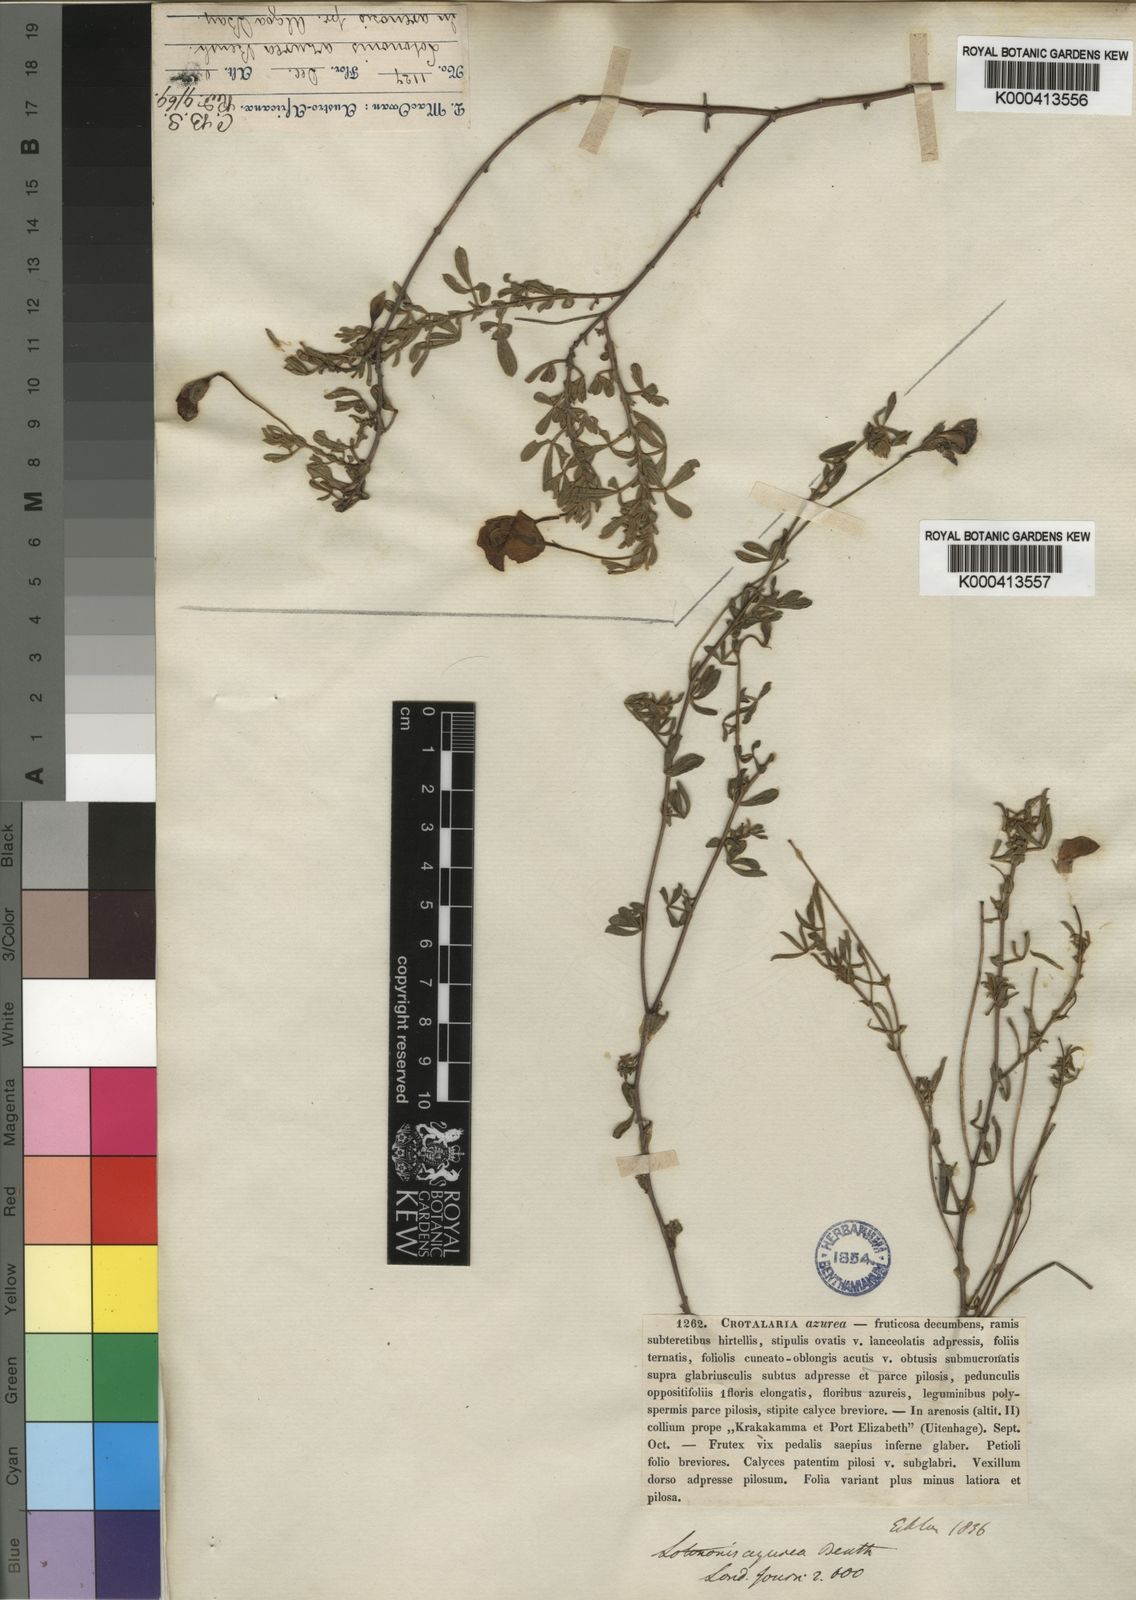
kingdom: Plantae
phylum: Tracheophyta
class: Magnoliopsida
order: Fabales
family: Fabaceae
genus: Lotononis
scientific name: Lotononis azurea
